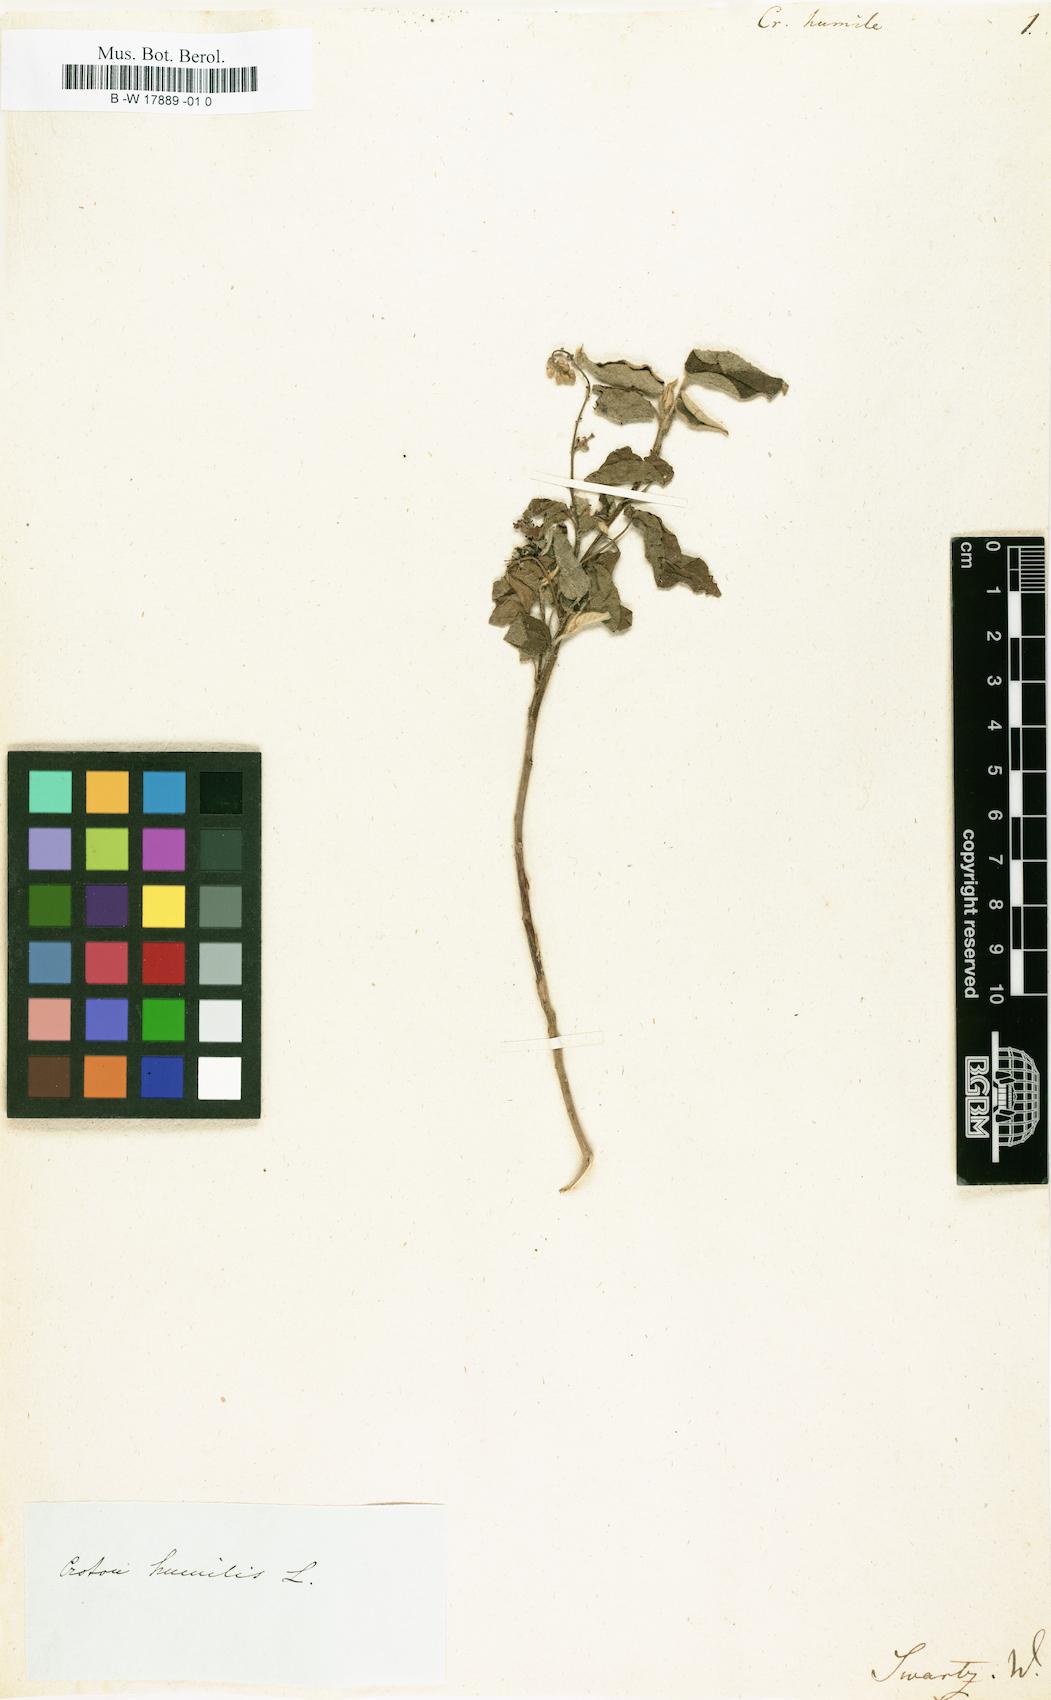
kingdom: Plantae
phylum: Tracheophyta
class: Magnoliopsida
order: Malpighiales
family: Euphorbiaceae
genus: Croton
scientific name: Croton humilis
